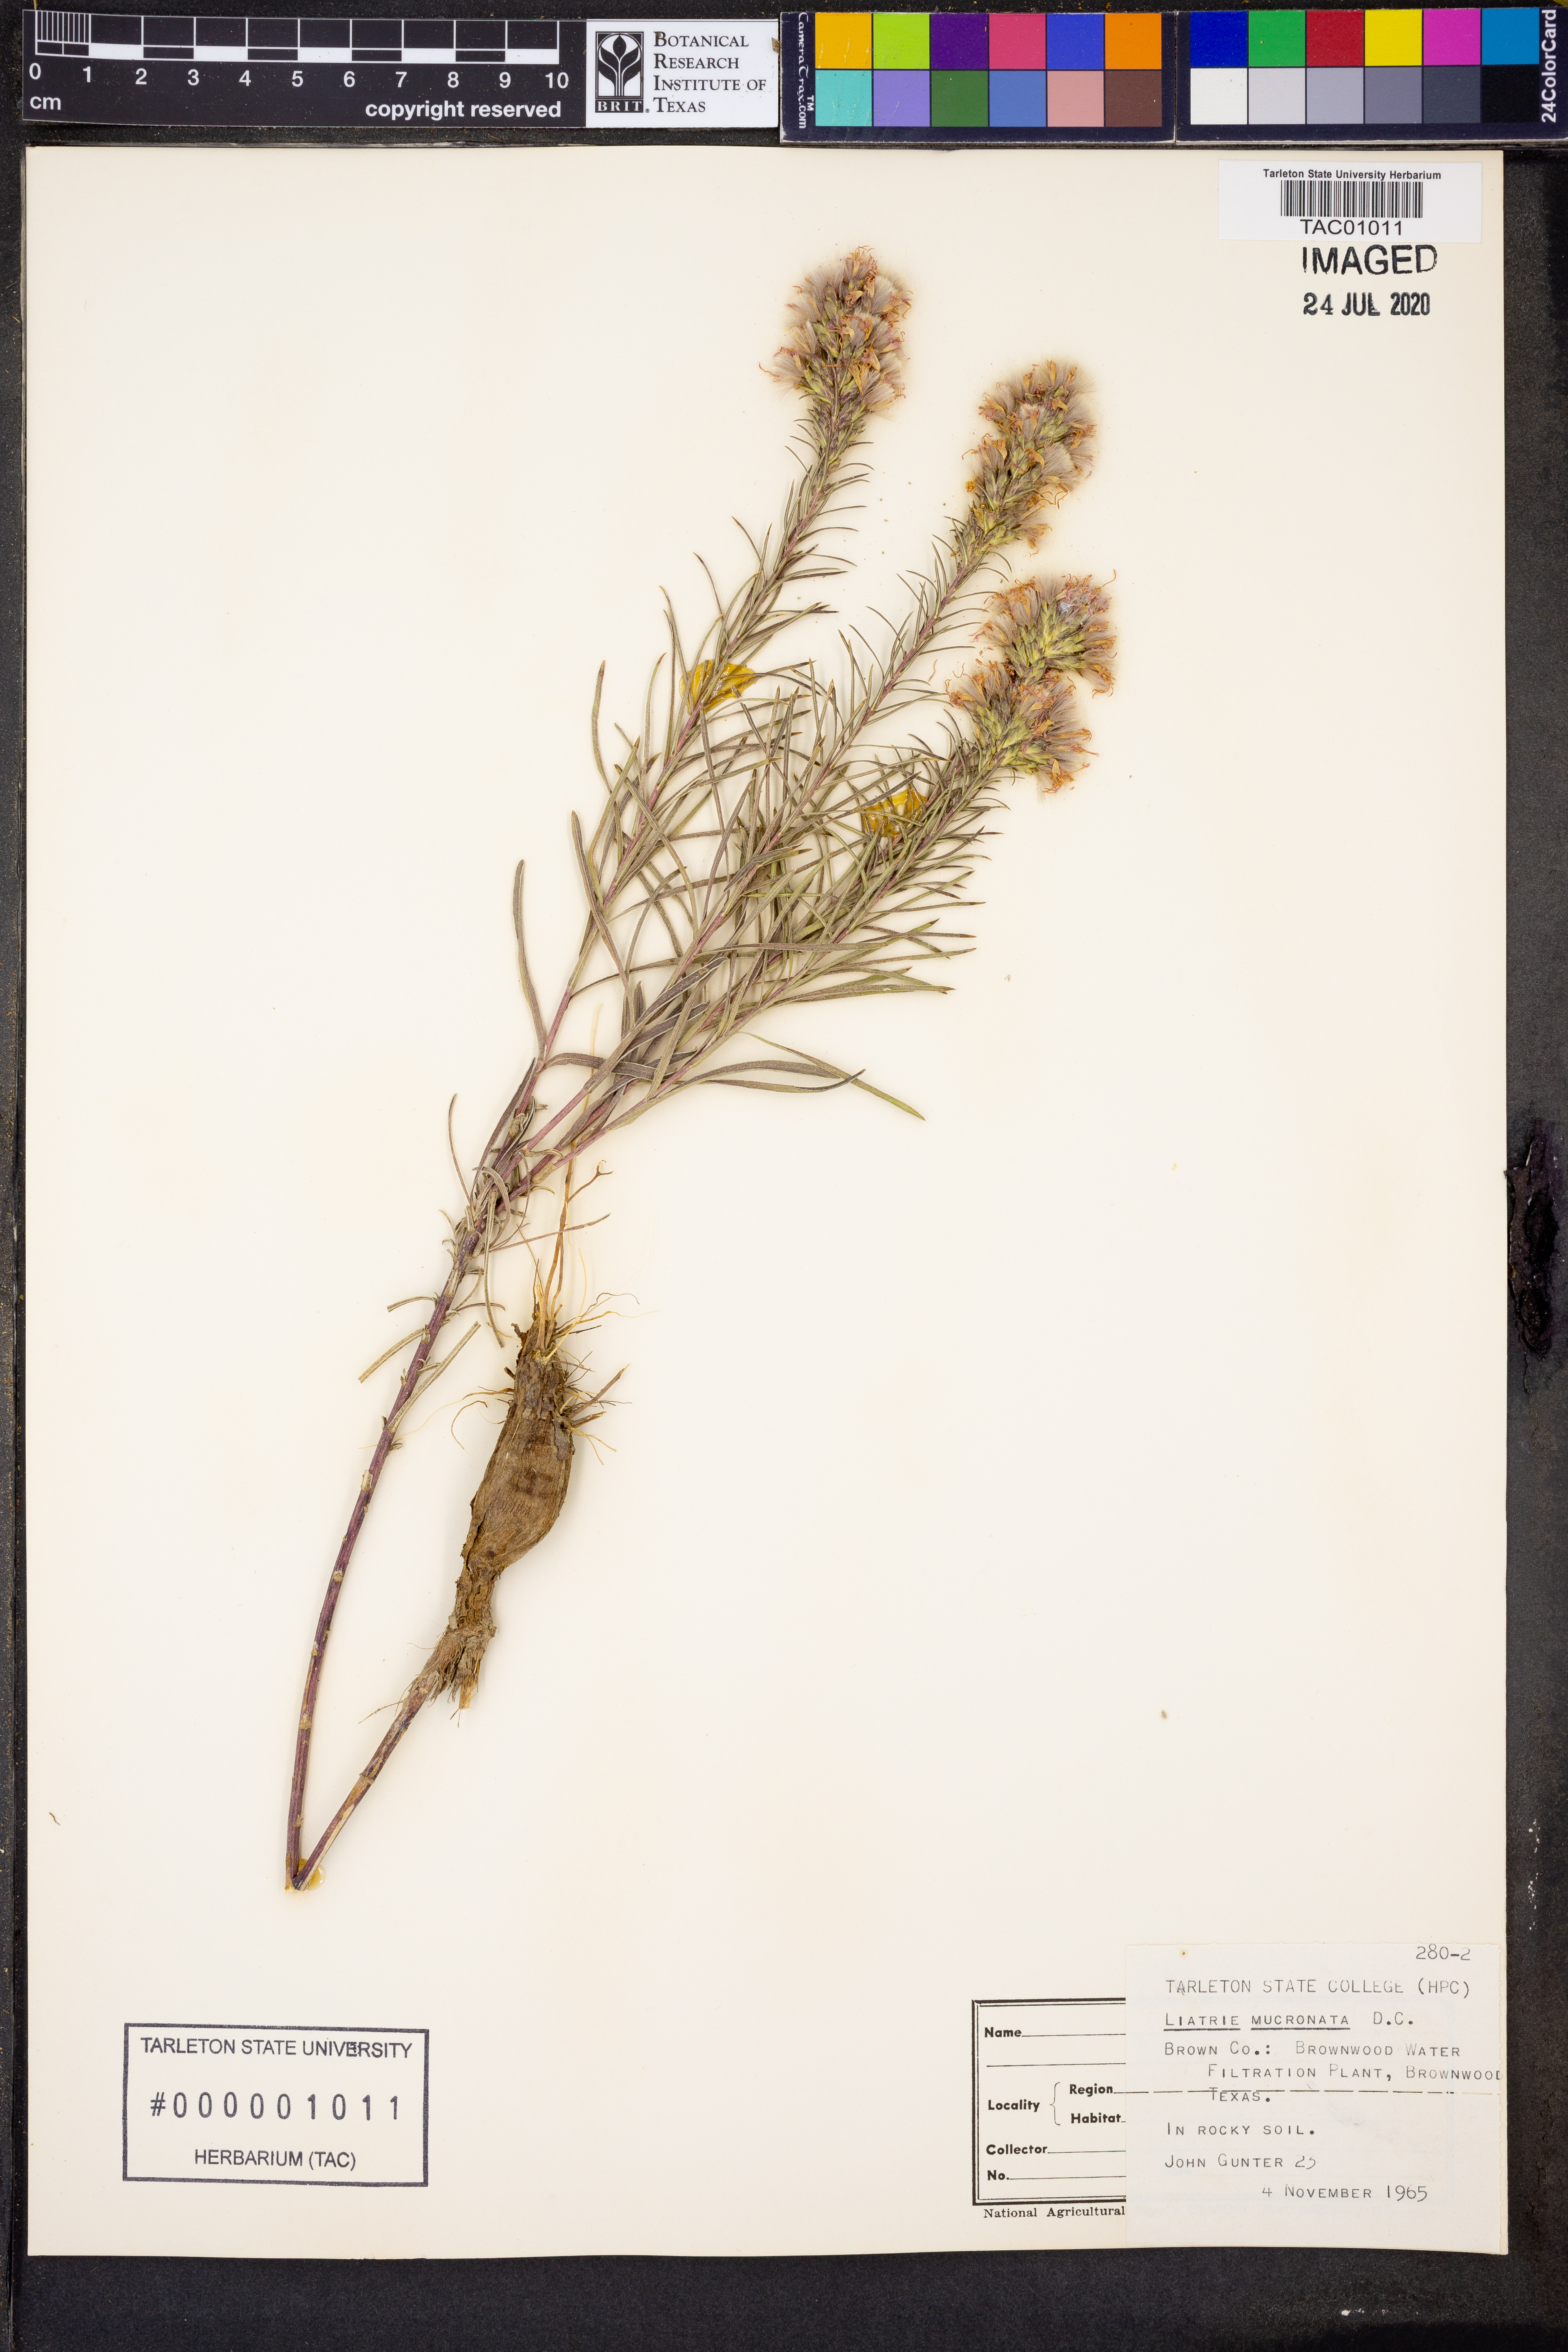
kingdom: Plantae
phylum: Tracheophyta
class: Magnoliopsida
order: Asterales
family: Asteraceae
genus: Liatris
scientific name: Liatris mucronata
